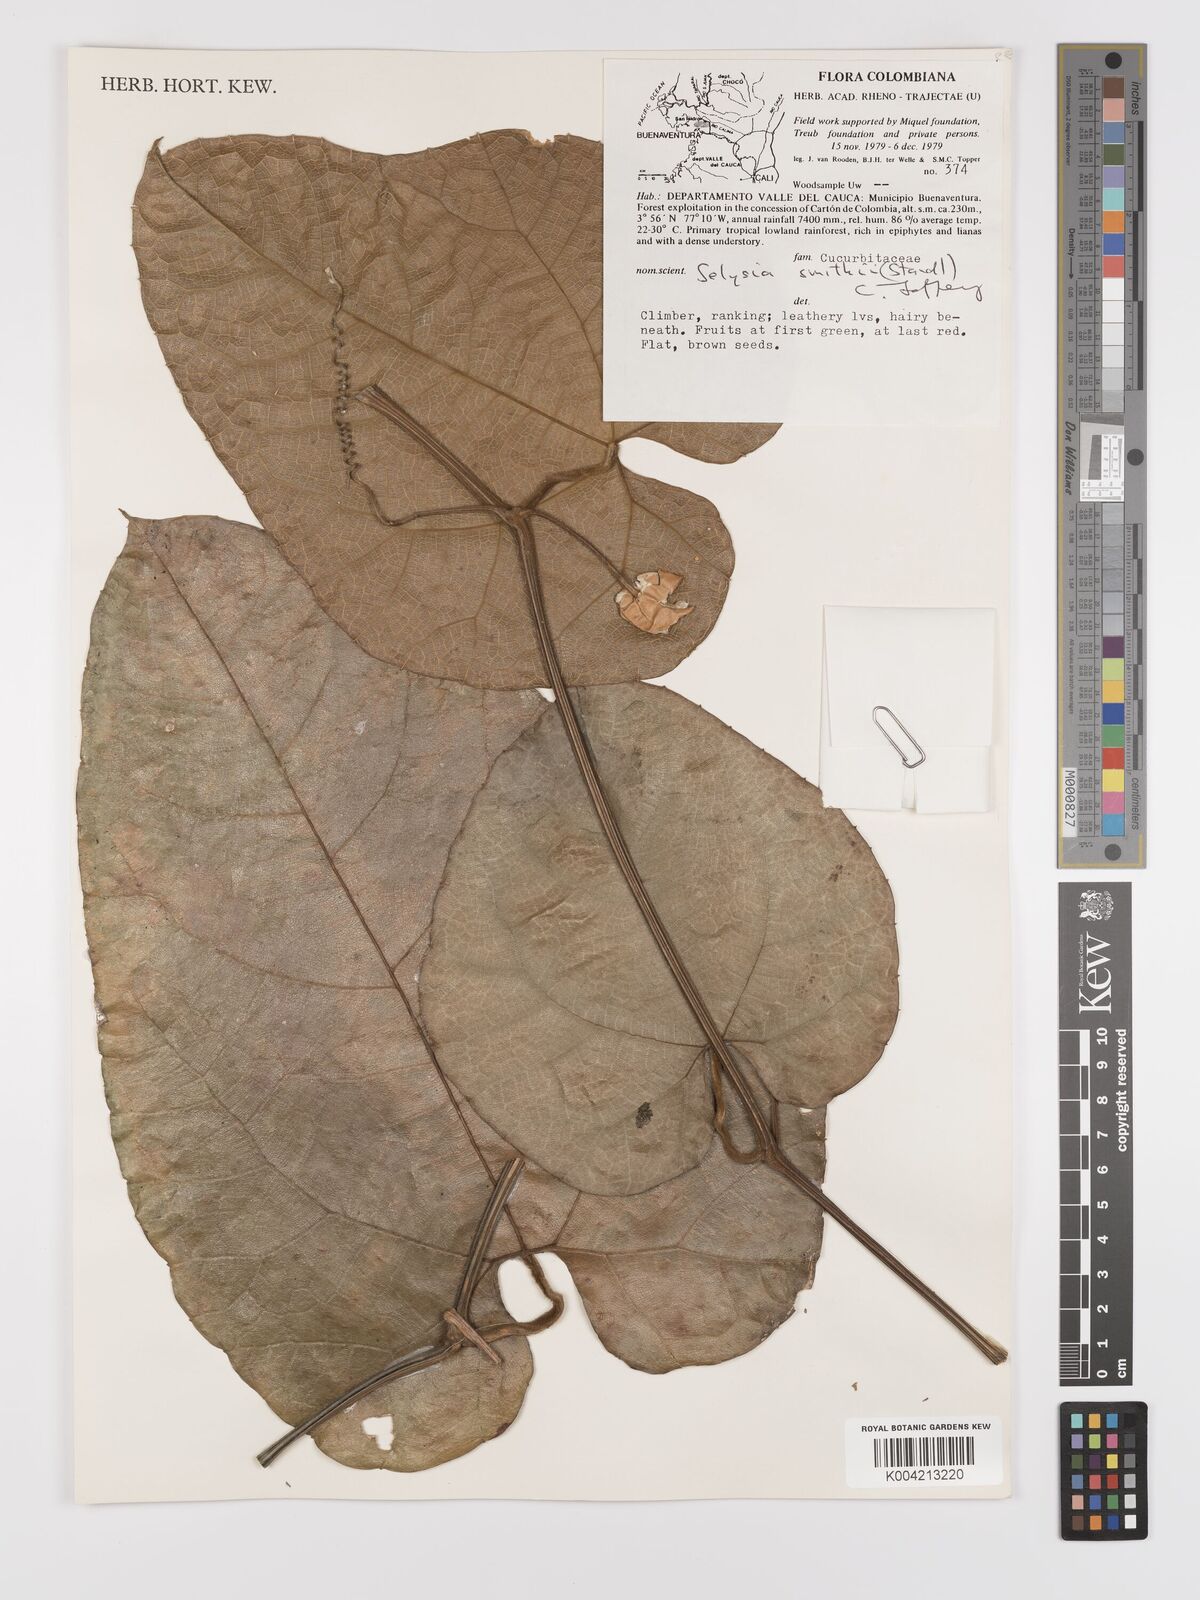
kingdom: Plantae
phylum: Tracheophyta
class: Magnoliopsida
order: Cucurbitales
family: Cucurbitaceae
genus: Cayaponia
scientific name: Cayaponia smithii
